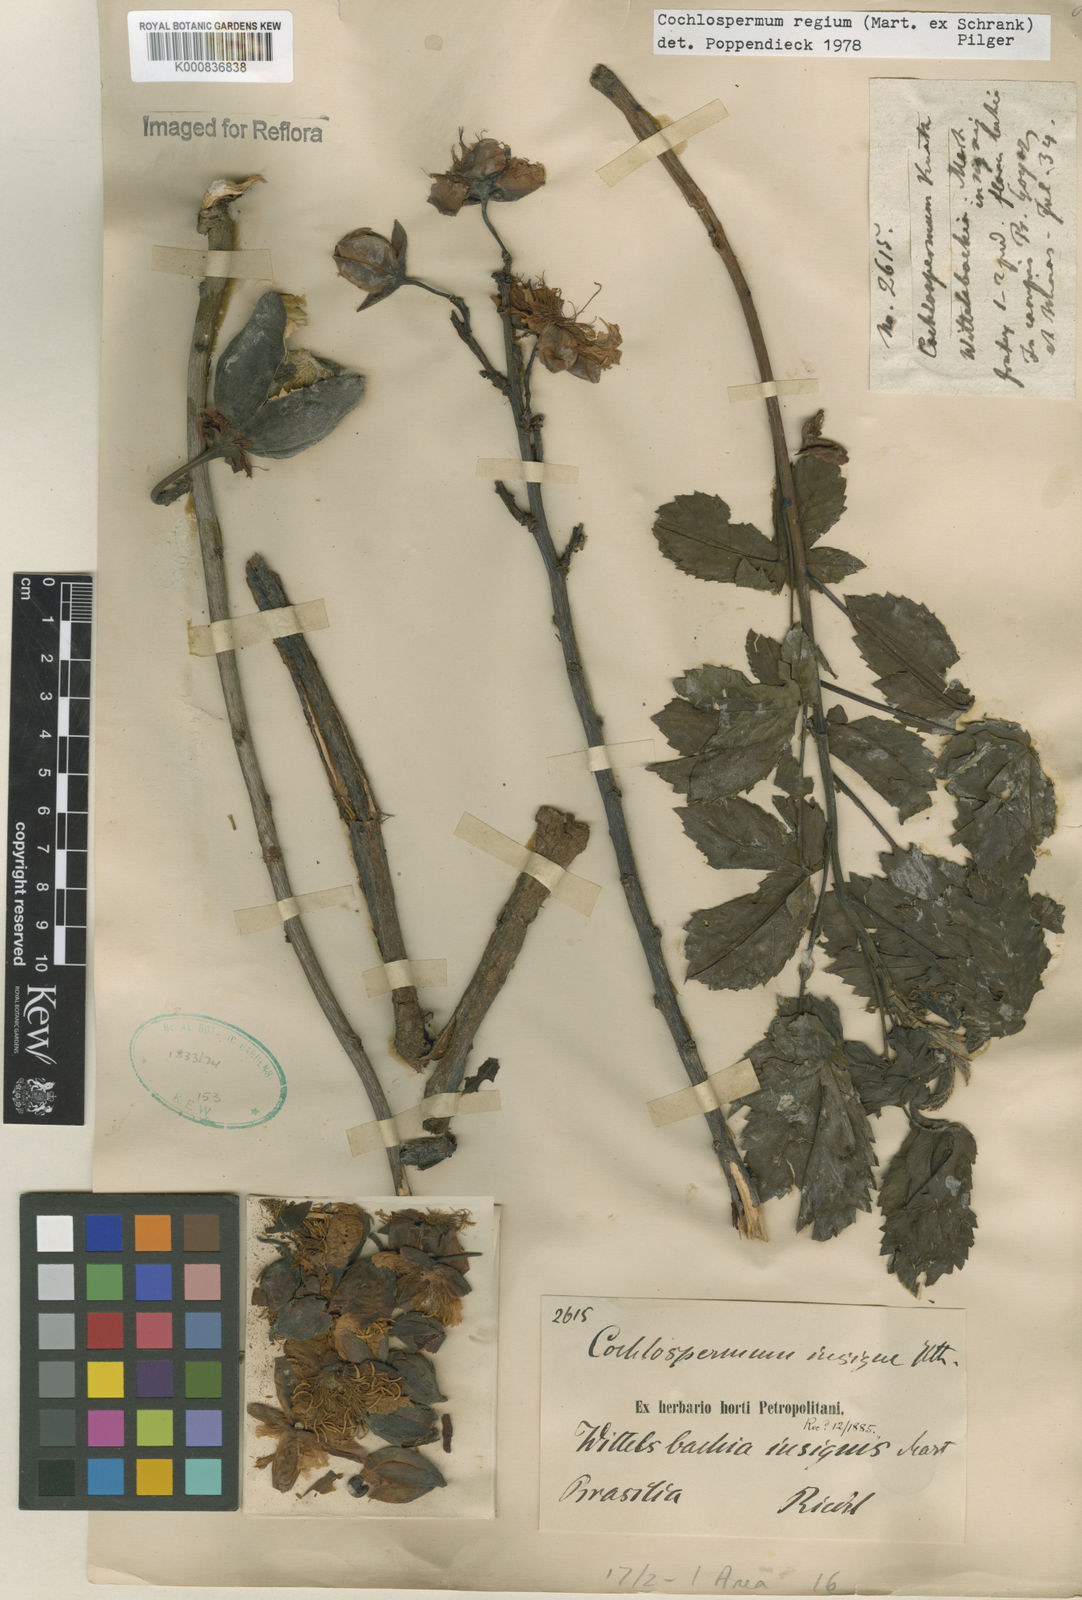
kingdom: Plantae
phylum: Tracheophyta
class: Magnoliopsida
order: Malvales
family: Cochlospermaceae
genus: Cochlospermum
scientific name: Cochlospermum regium
